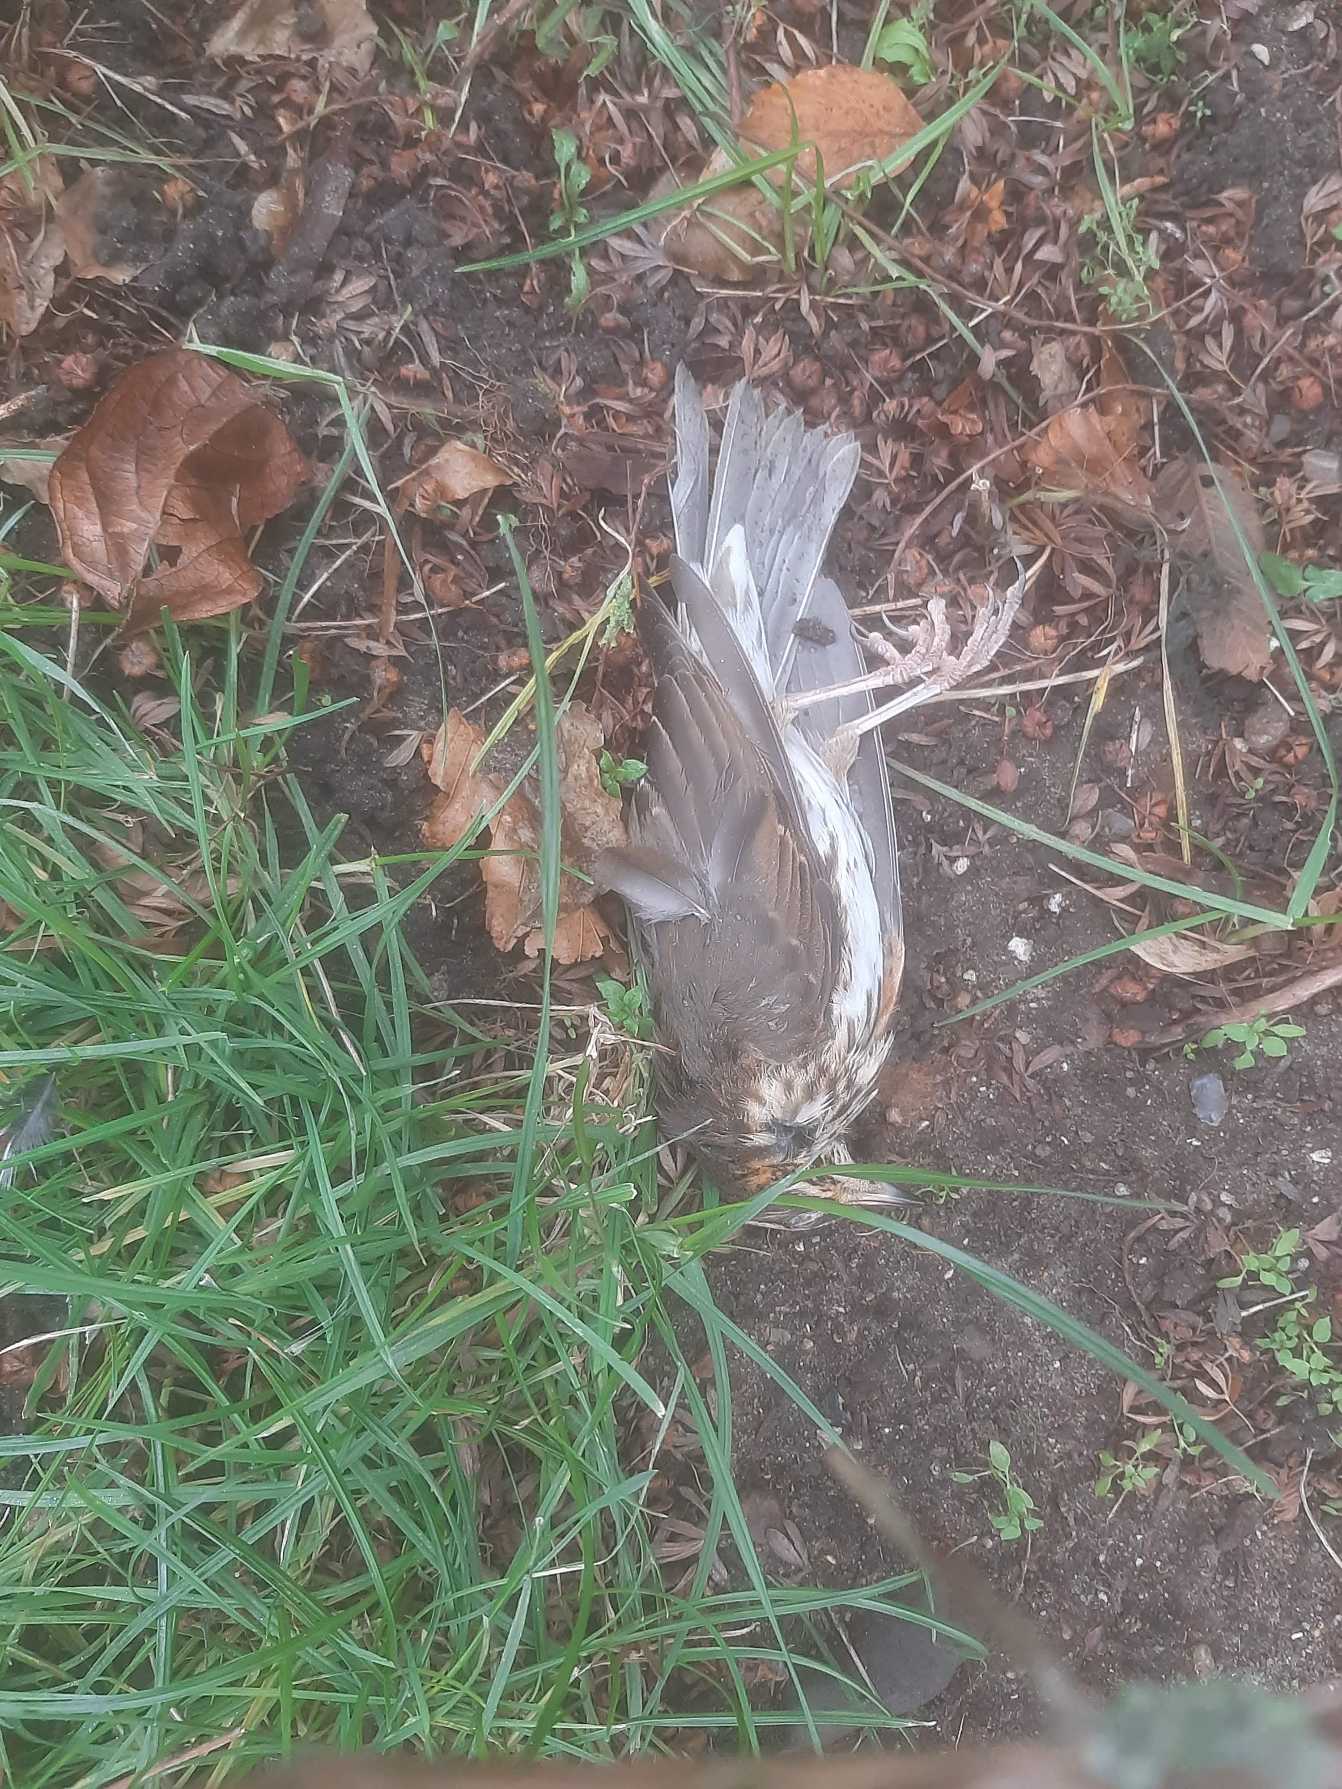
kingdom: Animalia
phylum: Chordata
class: Aves
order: Passeriformes
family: Turdidae
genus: Turdus
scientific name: Turdus iliacus
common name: Vindrossel
